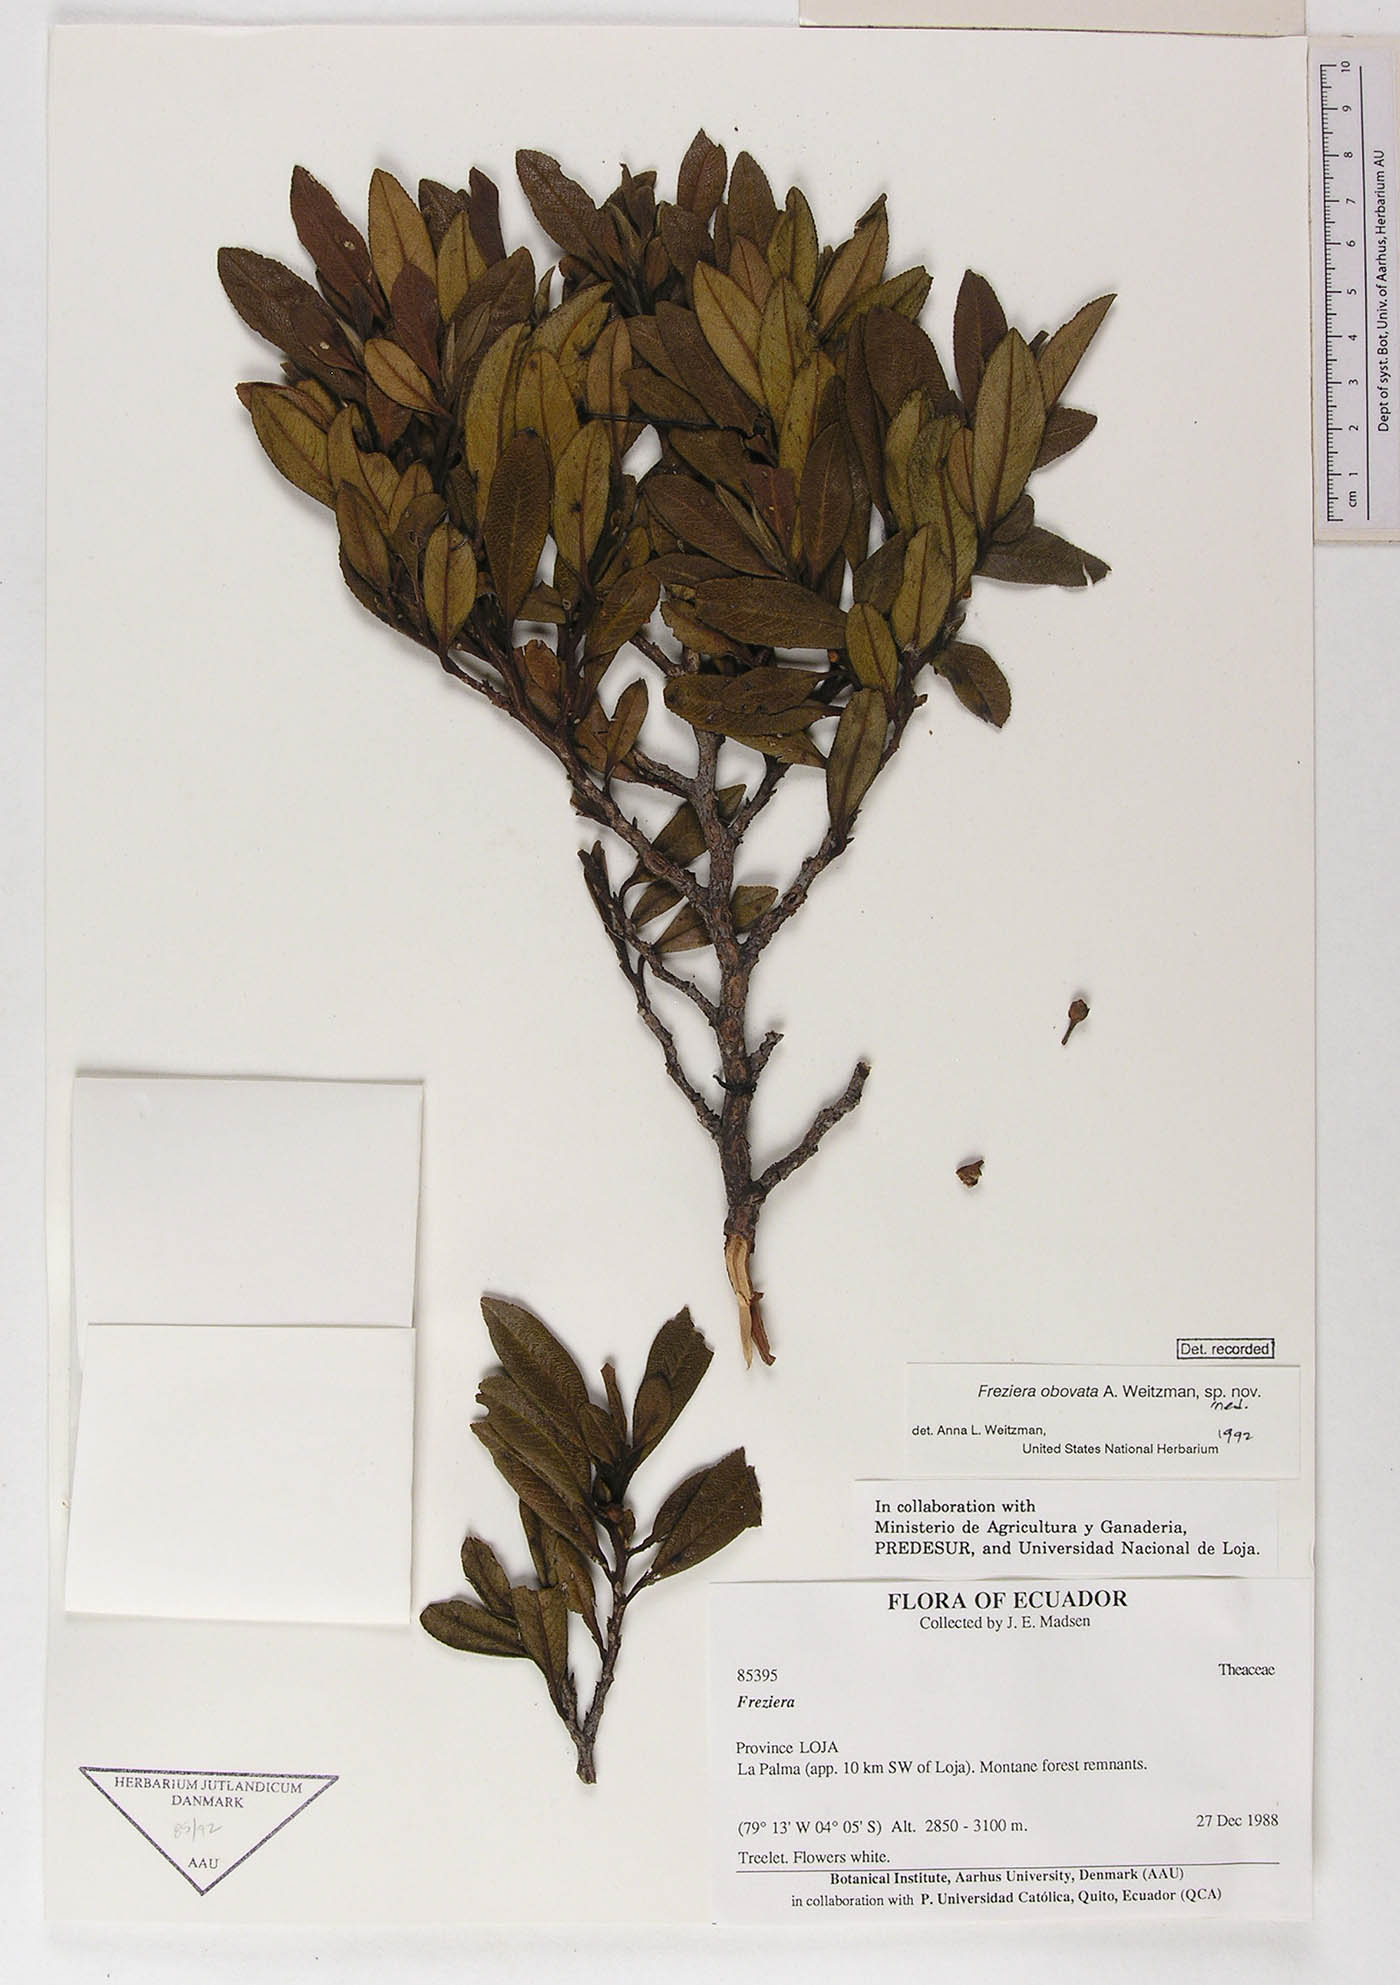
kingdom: Plantae
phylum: Tracheophyta
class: Magnoliopsida
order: Ericales
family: Pentaphylacaceae
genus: Freziera
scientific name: Freziera obovata
